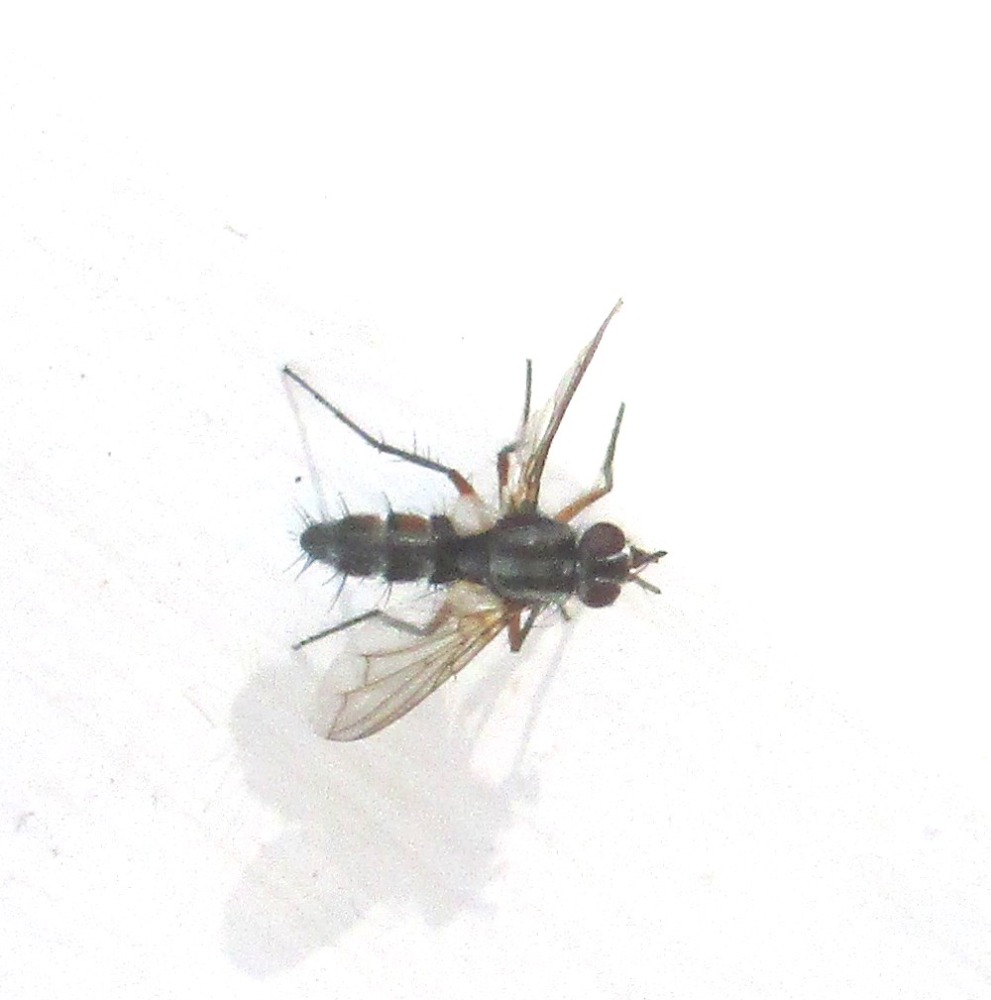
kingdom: Animalia
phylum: Arthropoda
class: Insecta
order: Diptera
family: Tachinidae
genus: Mintho
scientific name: Mintho rufiventris
